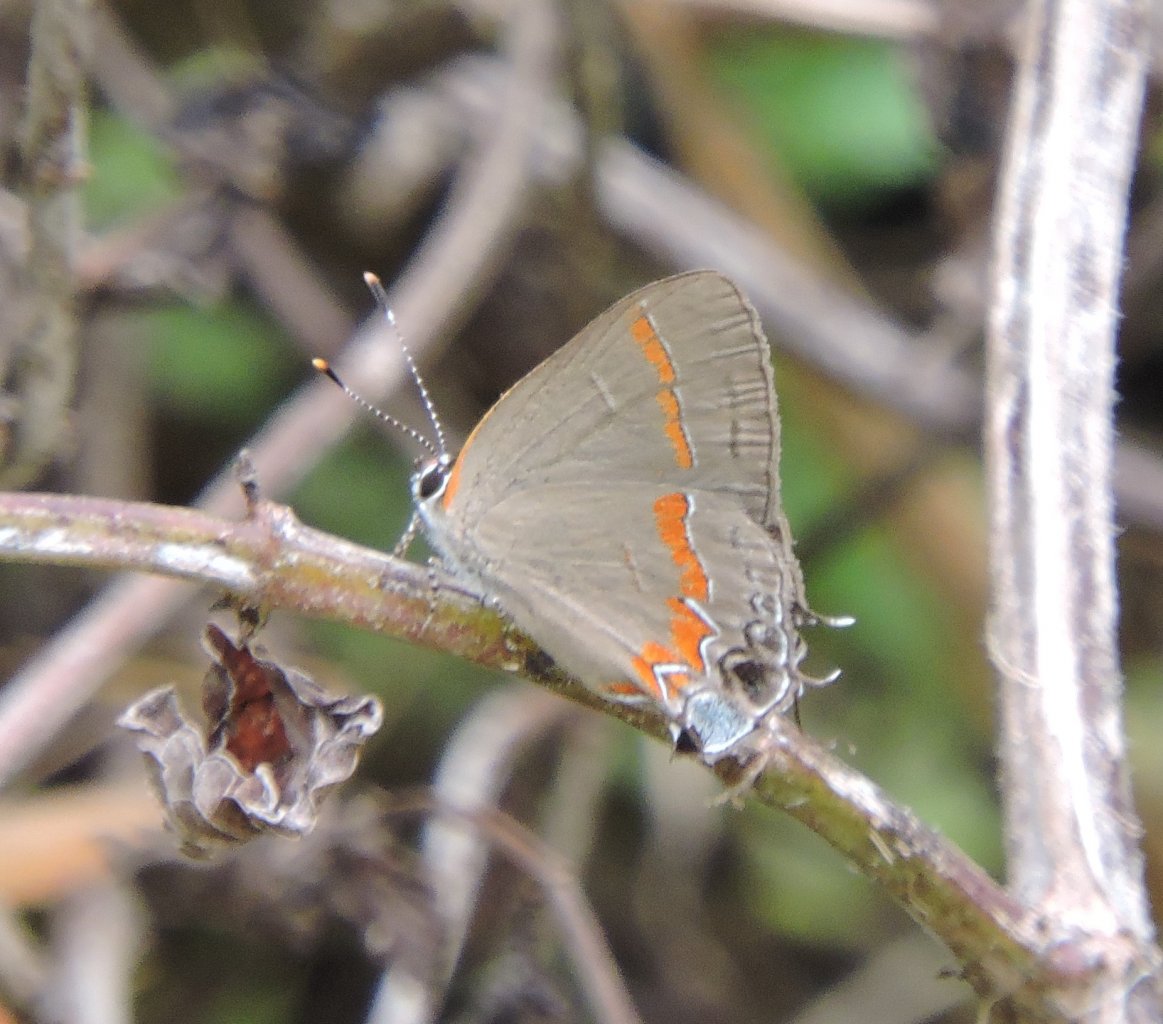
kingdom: Animalia
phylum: Arthropoda
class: Insecta
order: Lepidoptera
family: Lycaenidae
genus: Calycopis
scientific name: Calycopis cecrops
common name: Red-banded Hairstreak
